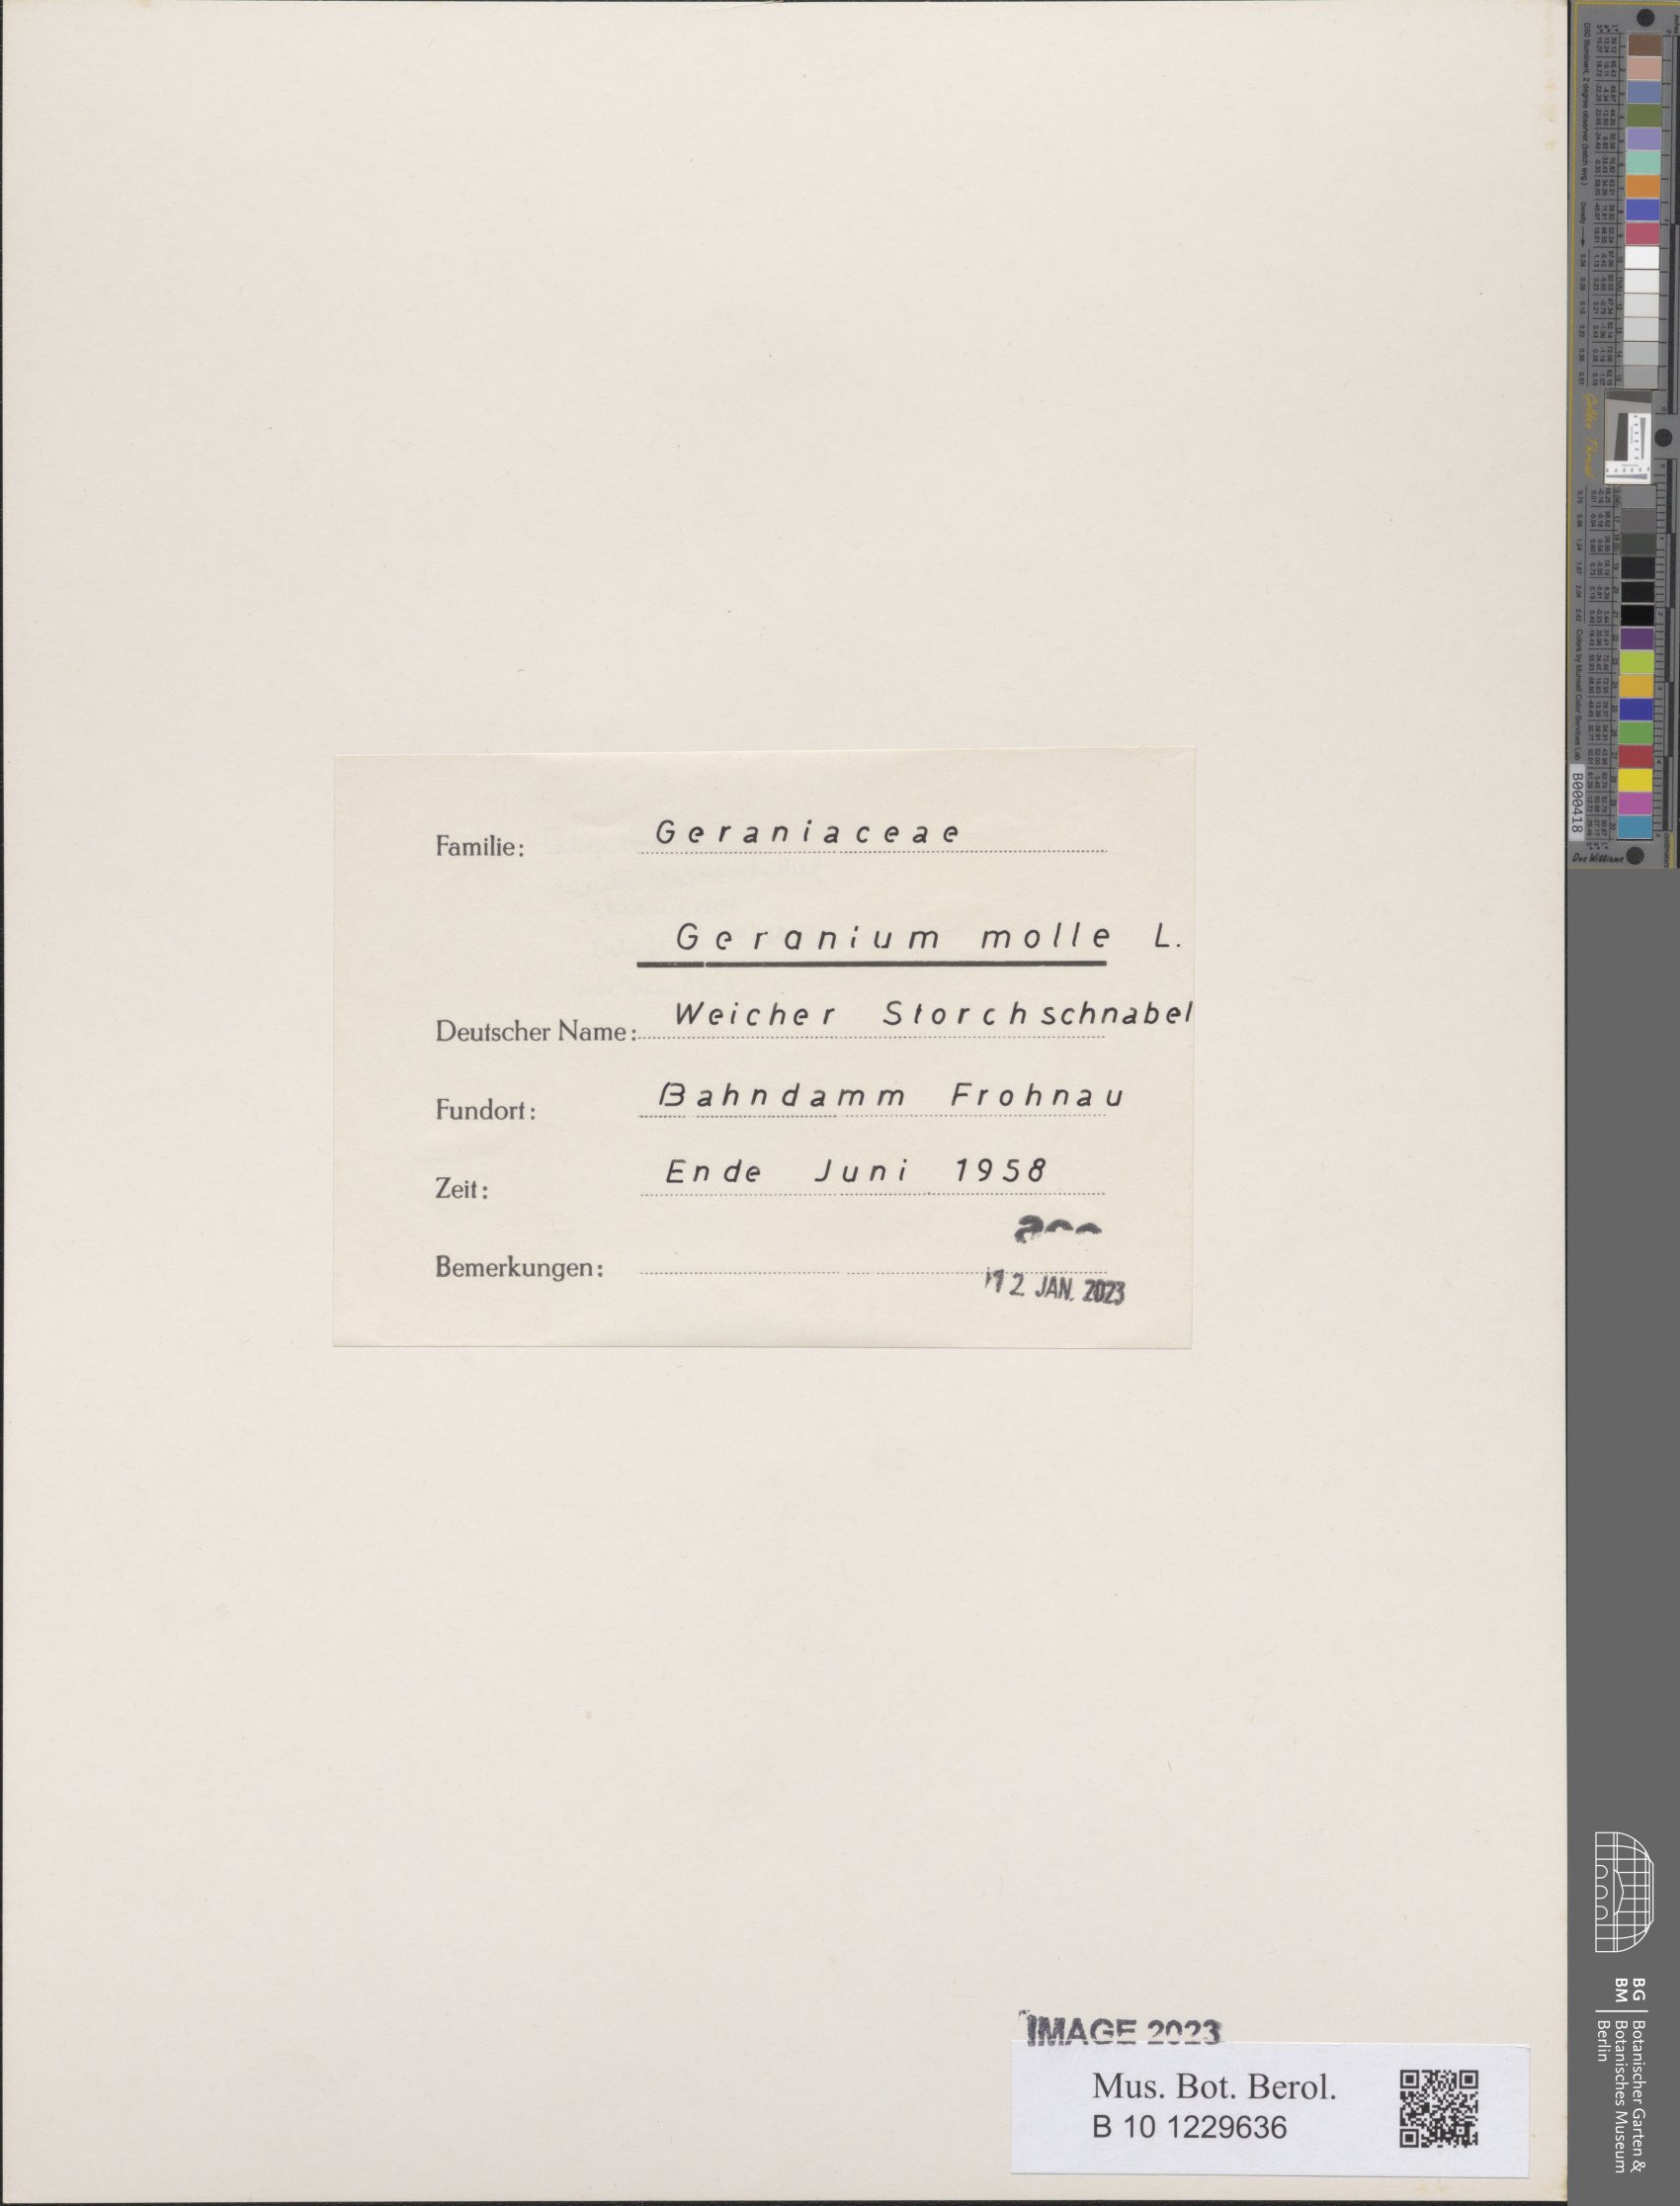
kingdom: Plantae
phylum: Tracheophyta
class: Magnoliopsida
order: Geraniales
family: Geraniaceae
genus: Geranium
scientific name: Geranium molle
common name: Dove's-foot crane's-bill
